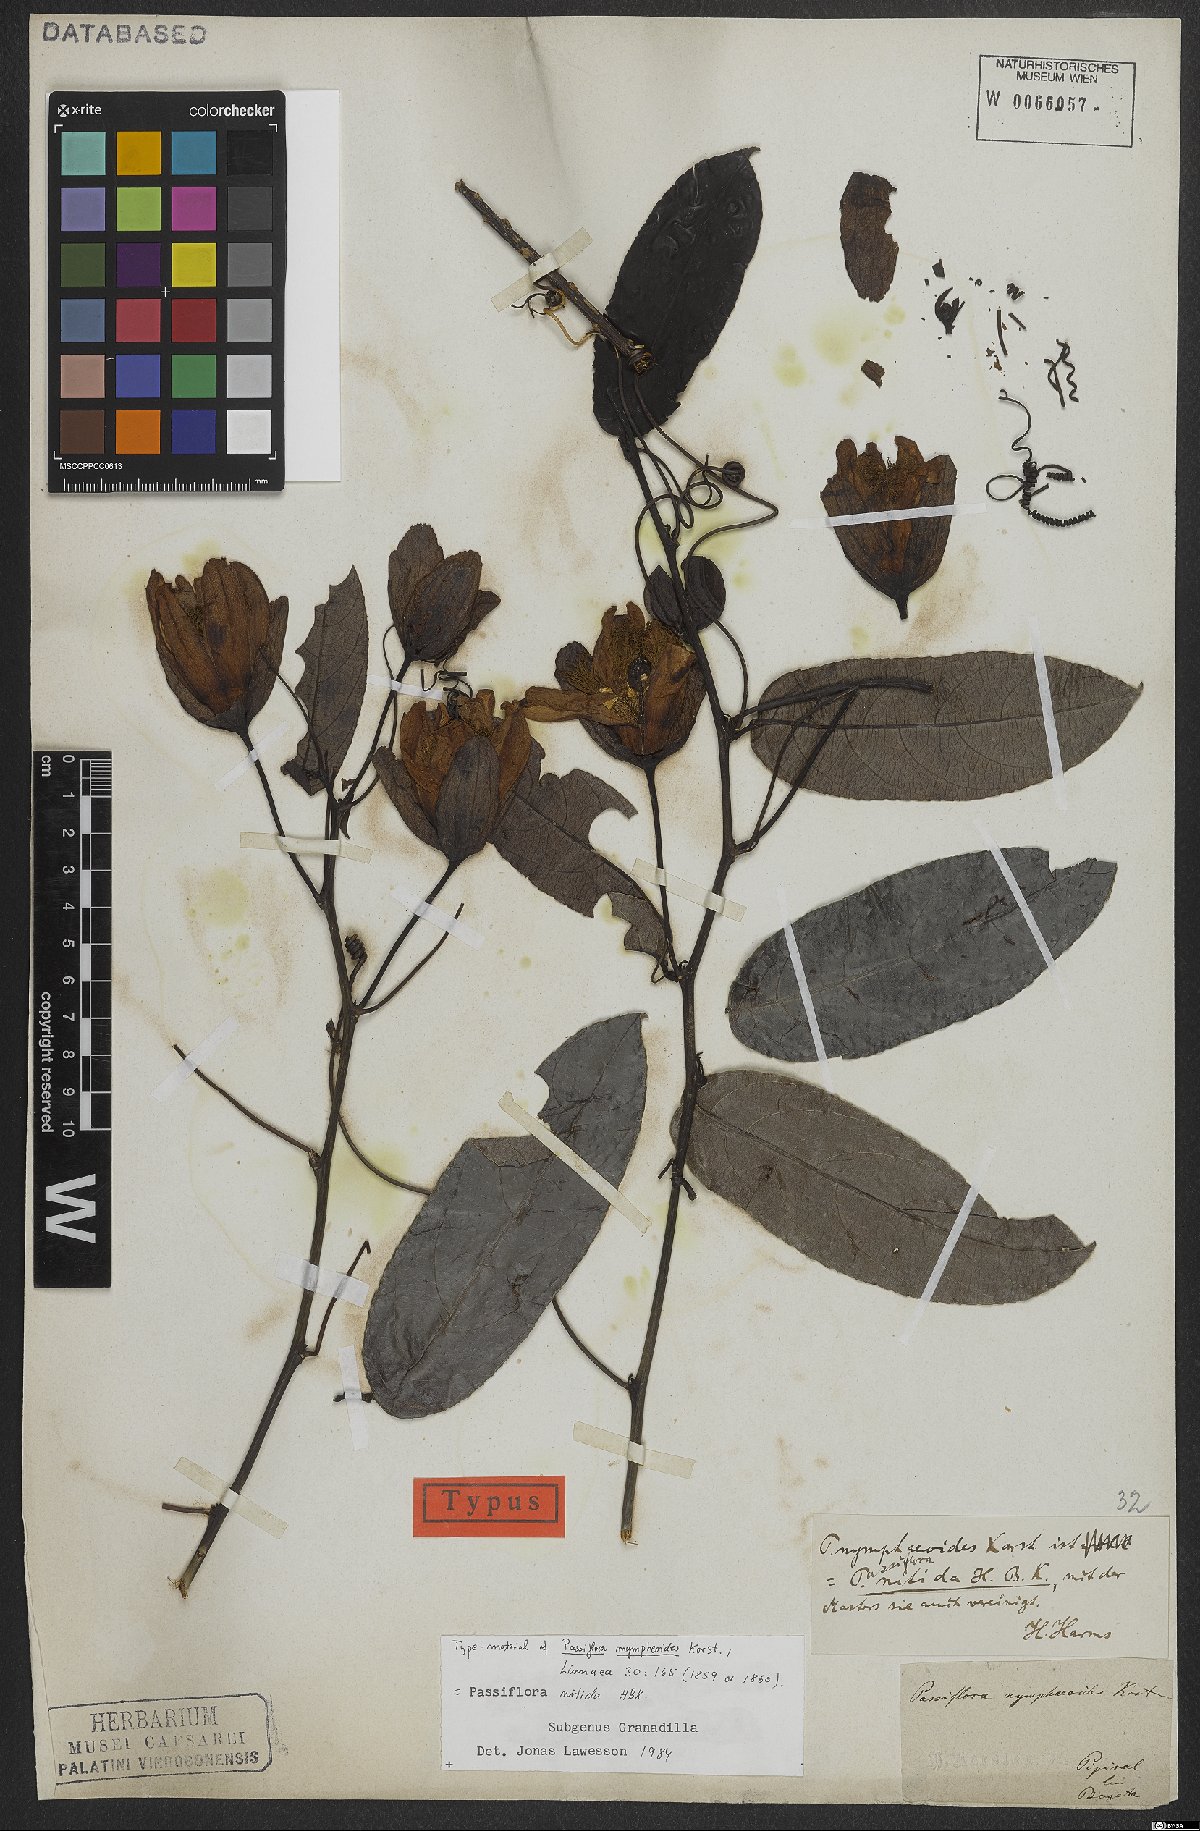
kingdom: Plantae
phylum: Tracheophyta
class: Magnoliopsida
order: Malpighiales
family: Passifloraceae
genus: Passiflora
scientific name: Passiflora nitida
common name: Bell-apple
